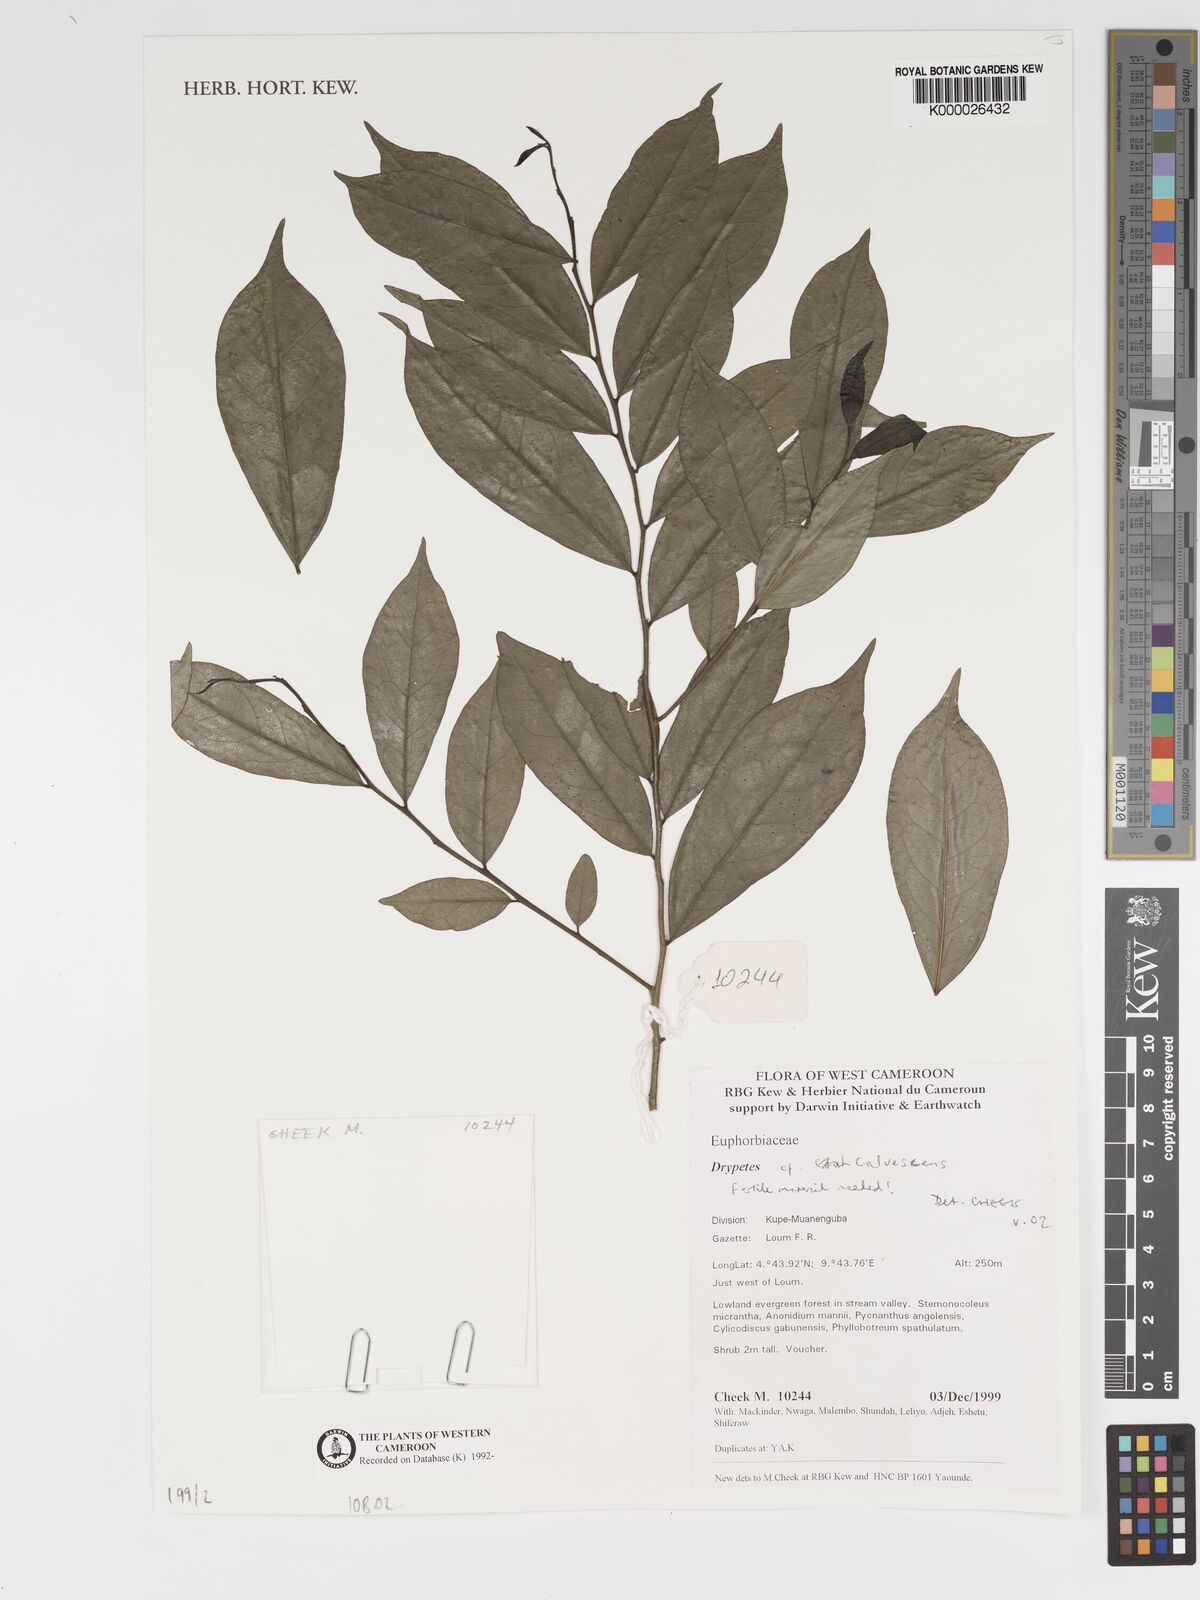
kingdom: Plantae
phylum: Tracheophyta
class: Magnoliopsida
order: Malpighiales
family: Putranjivaceae
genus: Drypetes
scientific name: Drypetes calvescens
